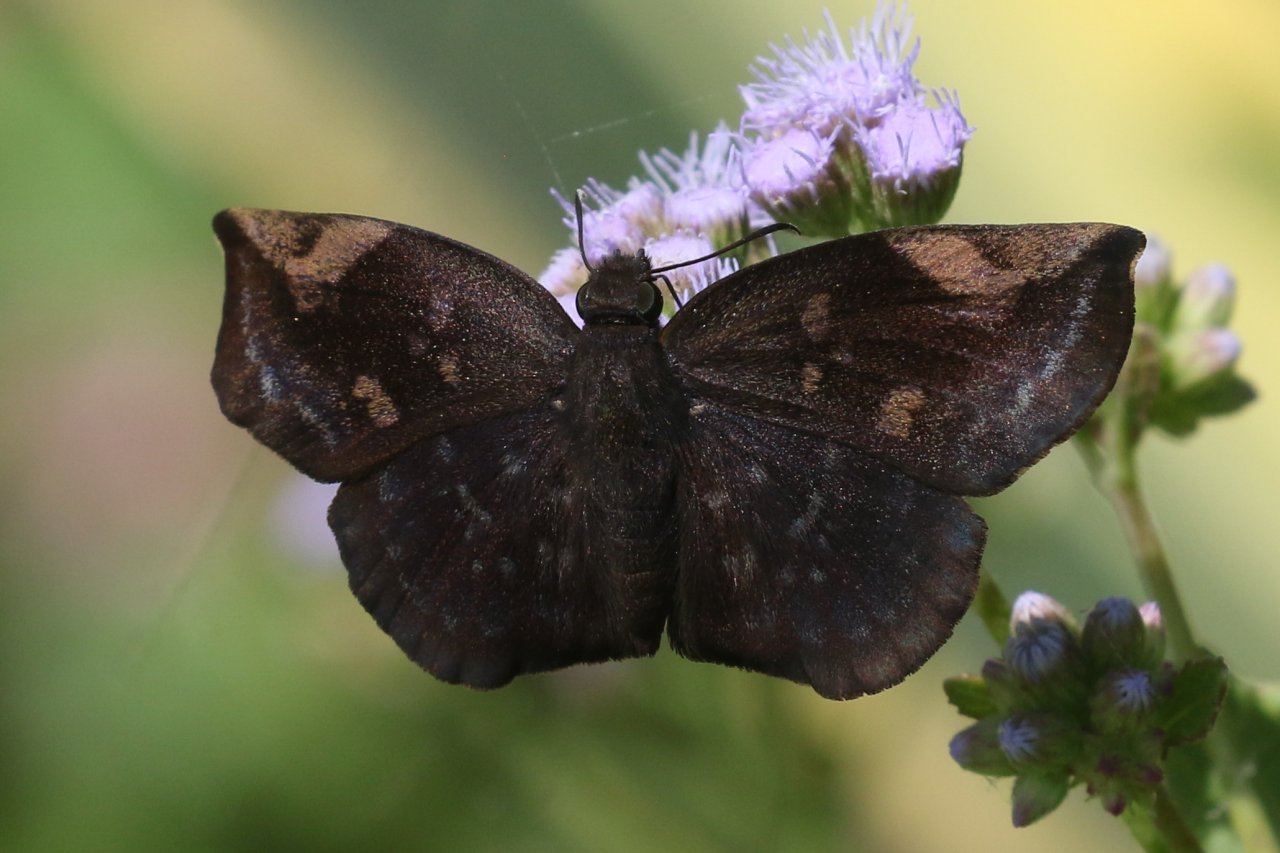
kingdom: Animalia
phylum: Arthropoda
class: Insecta
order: Lepidoptera
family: Hesperiidae
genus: Achlyodes
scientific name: Achlyodes thraso
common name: Sickle-winged Skipper
